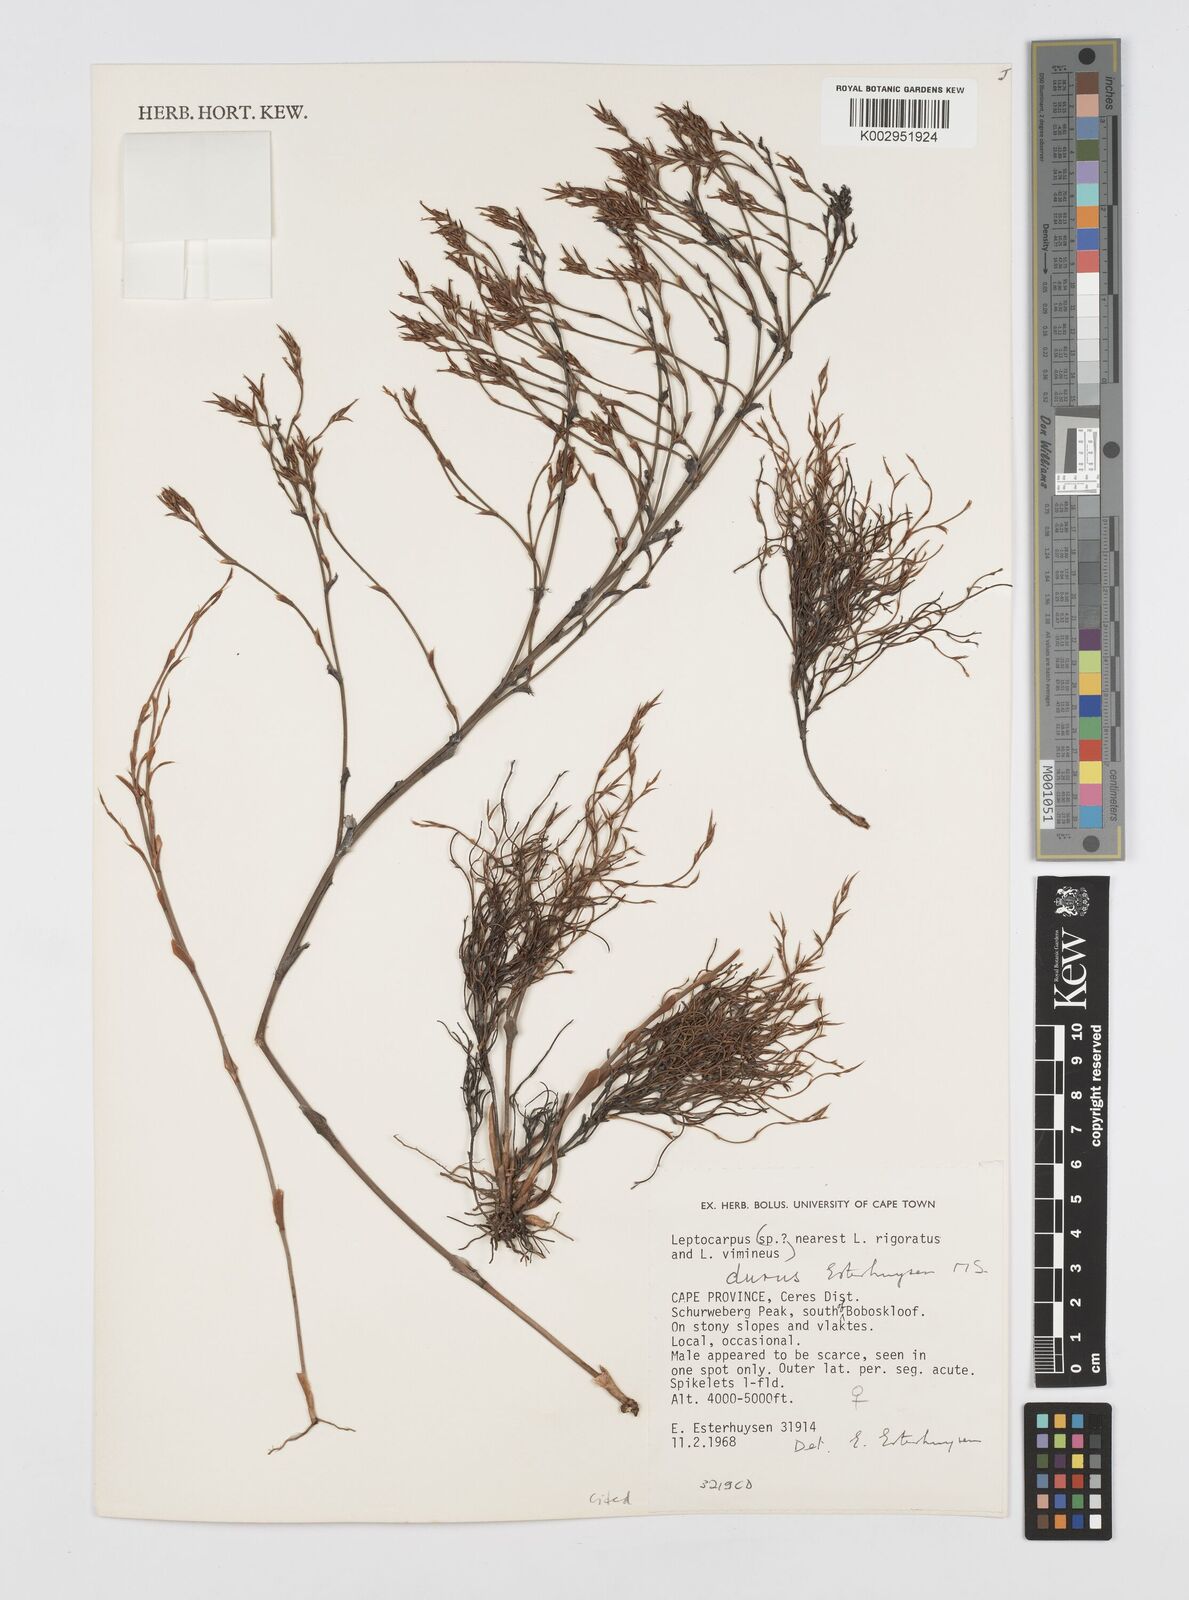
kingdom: Plantae
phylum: Tracheophyta
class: Liliopsida
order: Poales
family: Restionaceae
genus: Restio
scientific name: Restio durus
